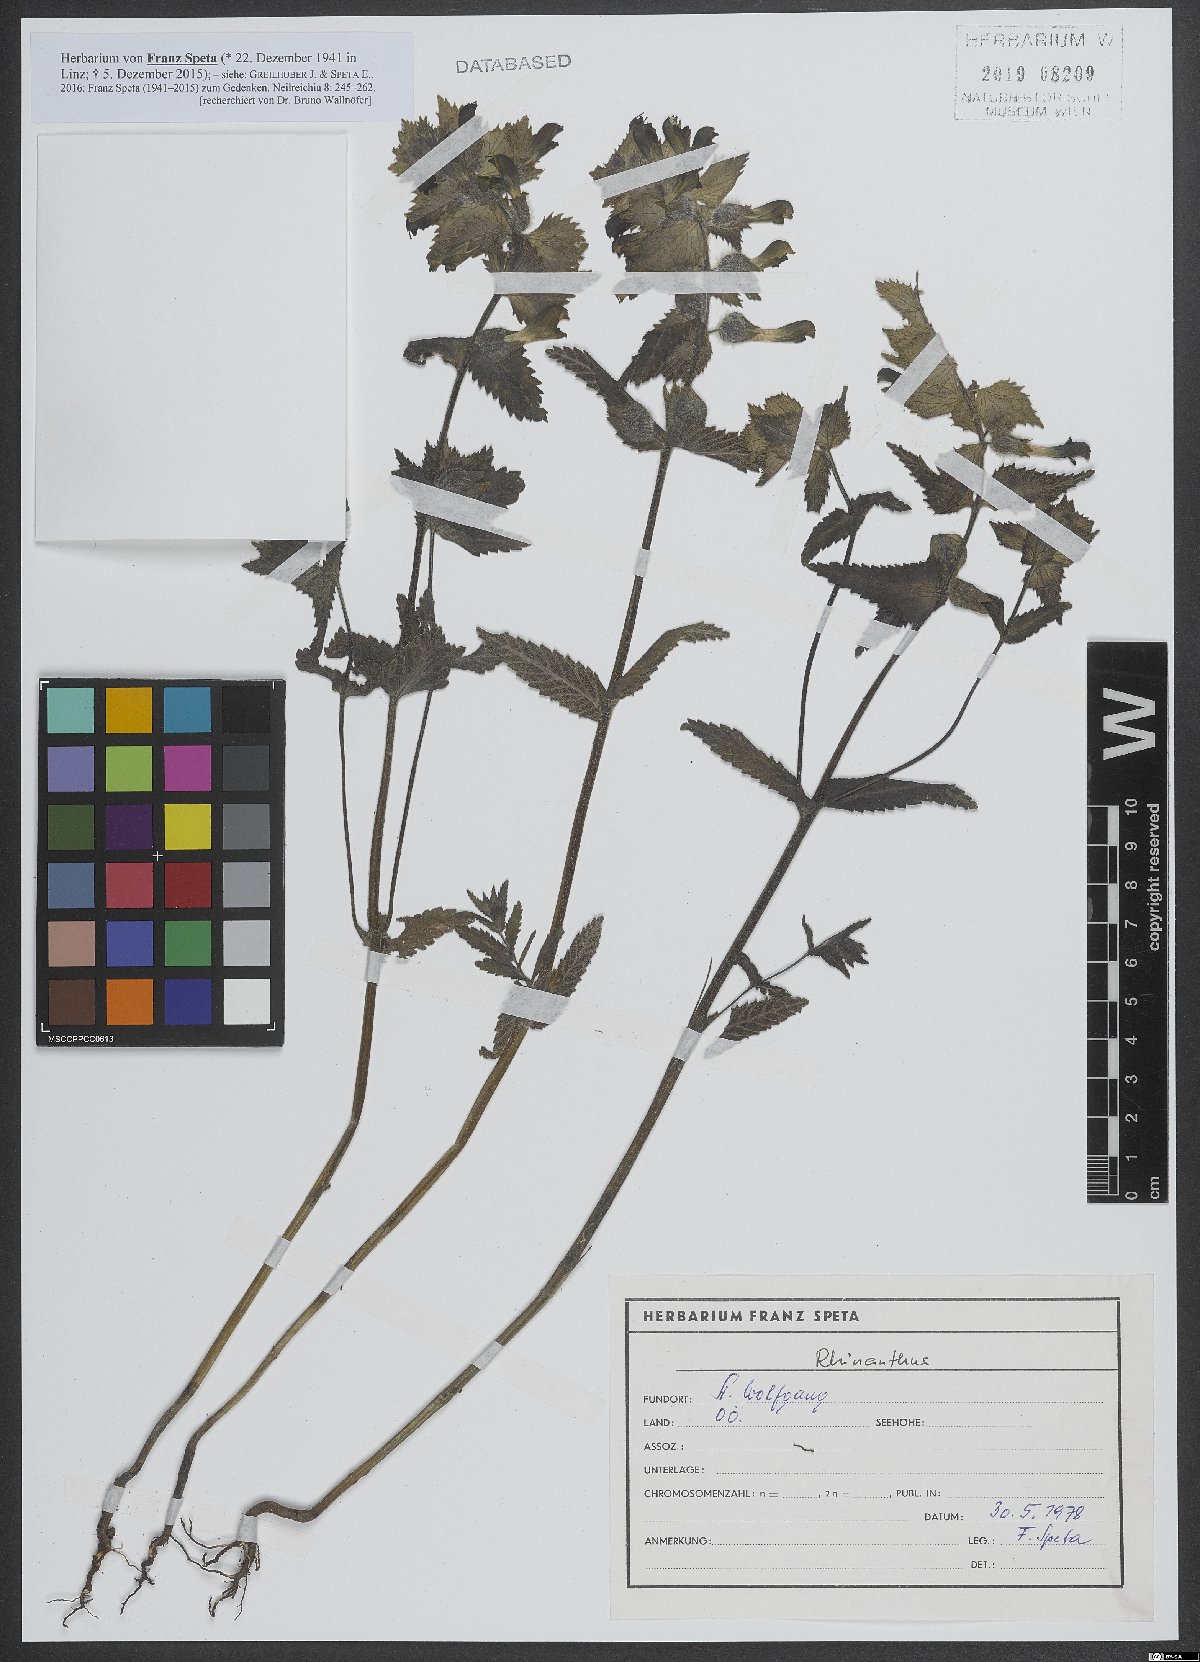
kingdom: Plantae
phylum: Tracheophyta
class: Magnoliopsida
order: Lamiales
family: Orobanchaceae
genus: Rhinanthus
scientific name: Rhinanthus
